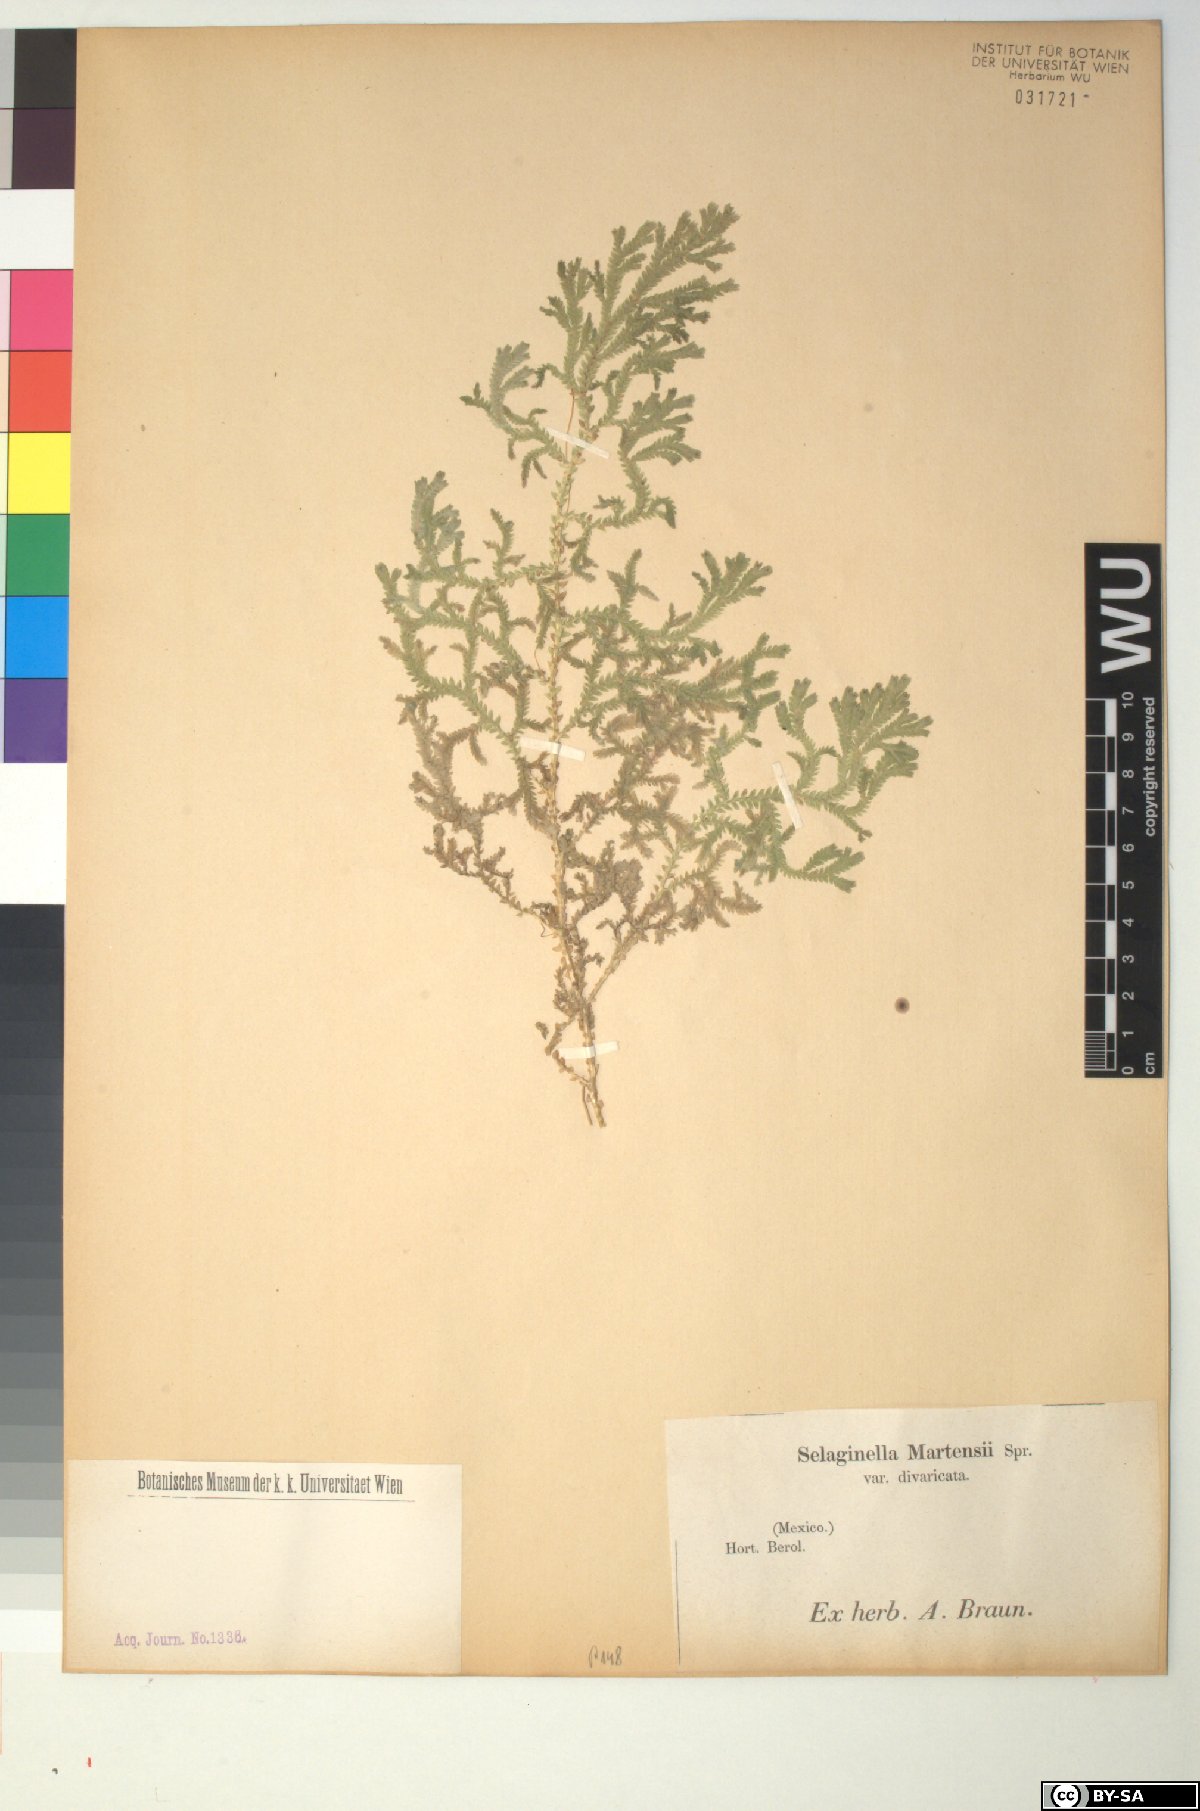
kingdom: Plantae
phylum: Tracheophyta
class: Lycopodiopsida
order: Selaginellales
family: Selaginellaceae
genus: Selaginella
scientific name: Selaginella martensii
